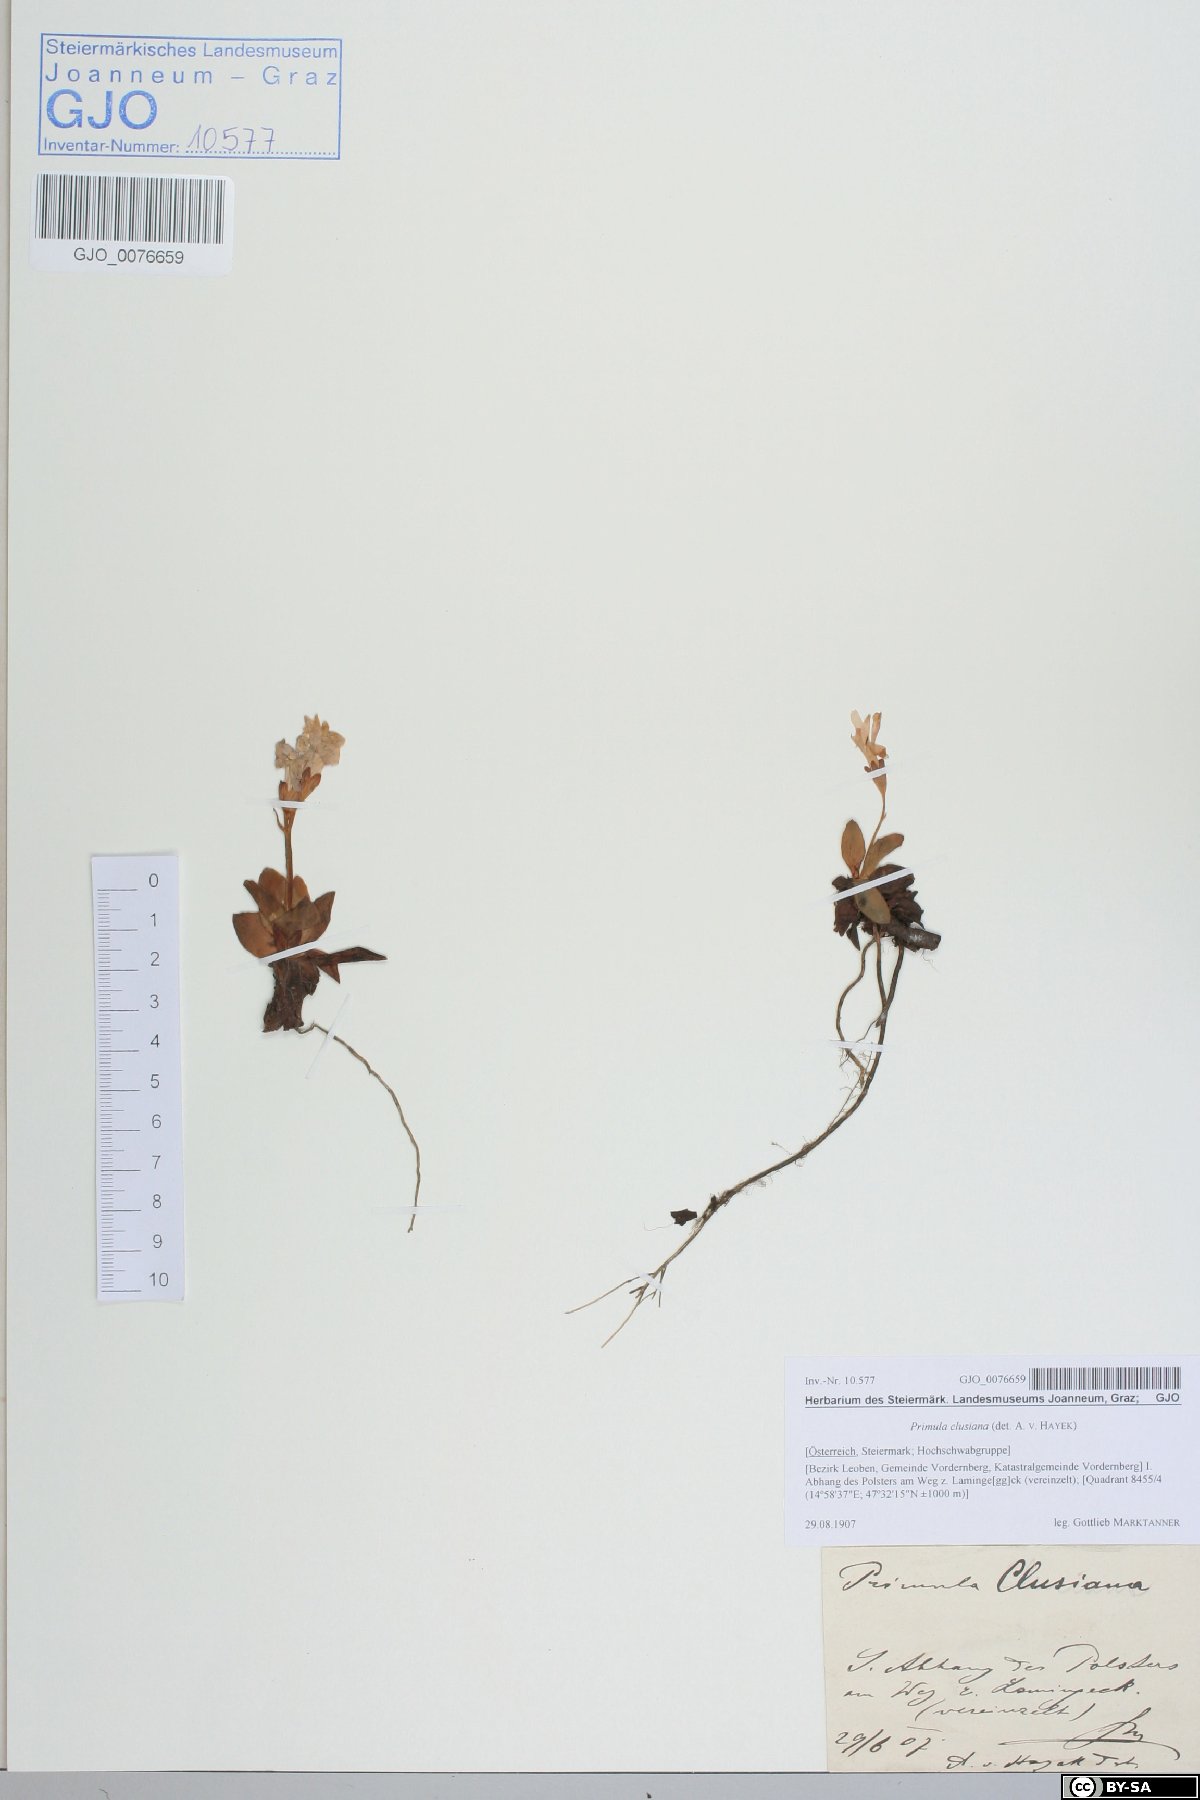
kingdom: Plantae
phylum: Tracheophyta
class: Magnoliopsida
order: Ericales
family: Primulaceae
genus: Primula
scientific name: Primula clusiana
